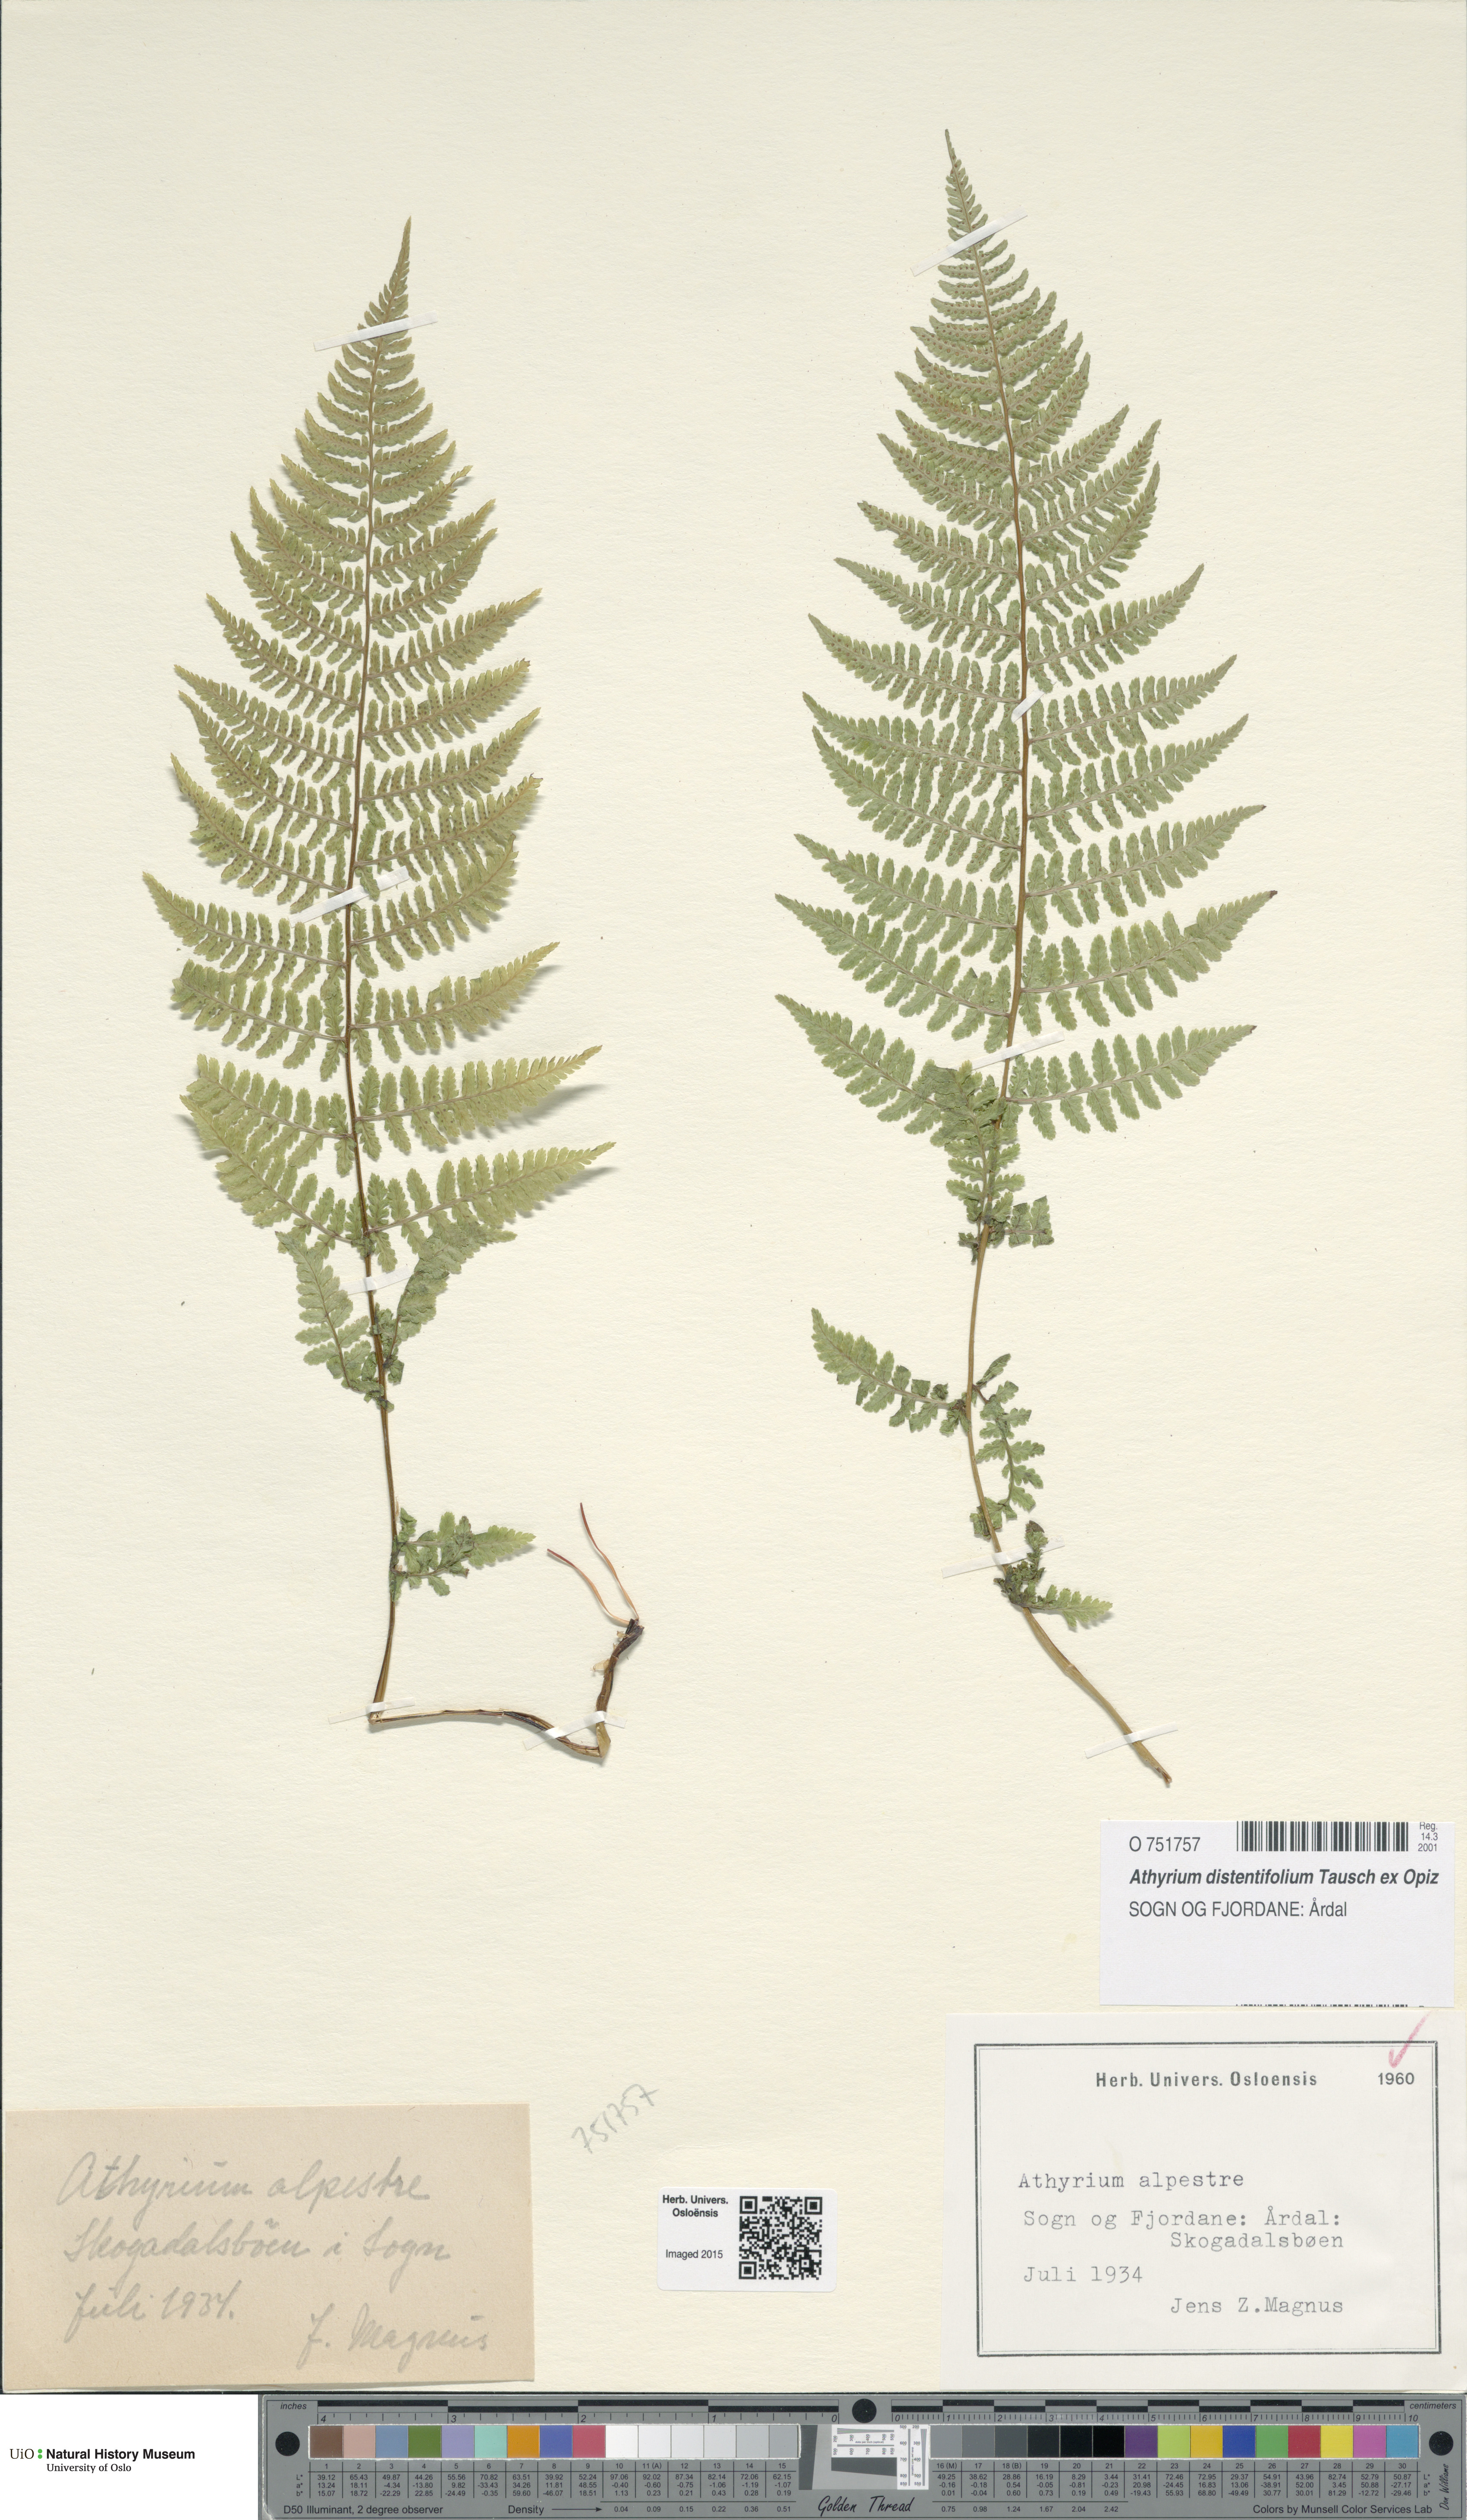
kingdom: Plantae
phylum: Tracheophyta
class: Polypodiopsida
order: Polypodiales
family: Athyriaceae
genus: Pseudathyrium
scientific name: Pseudathyrium alpestre
